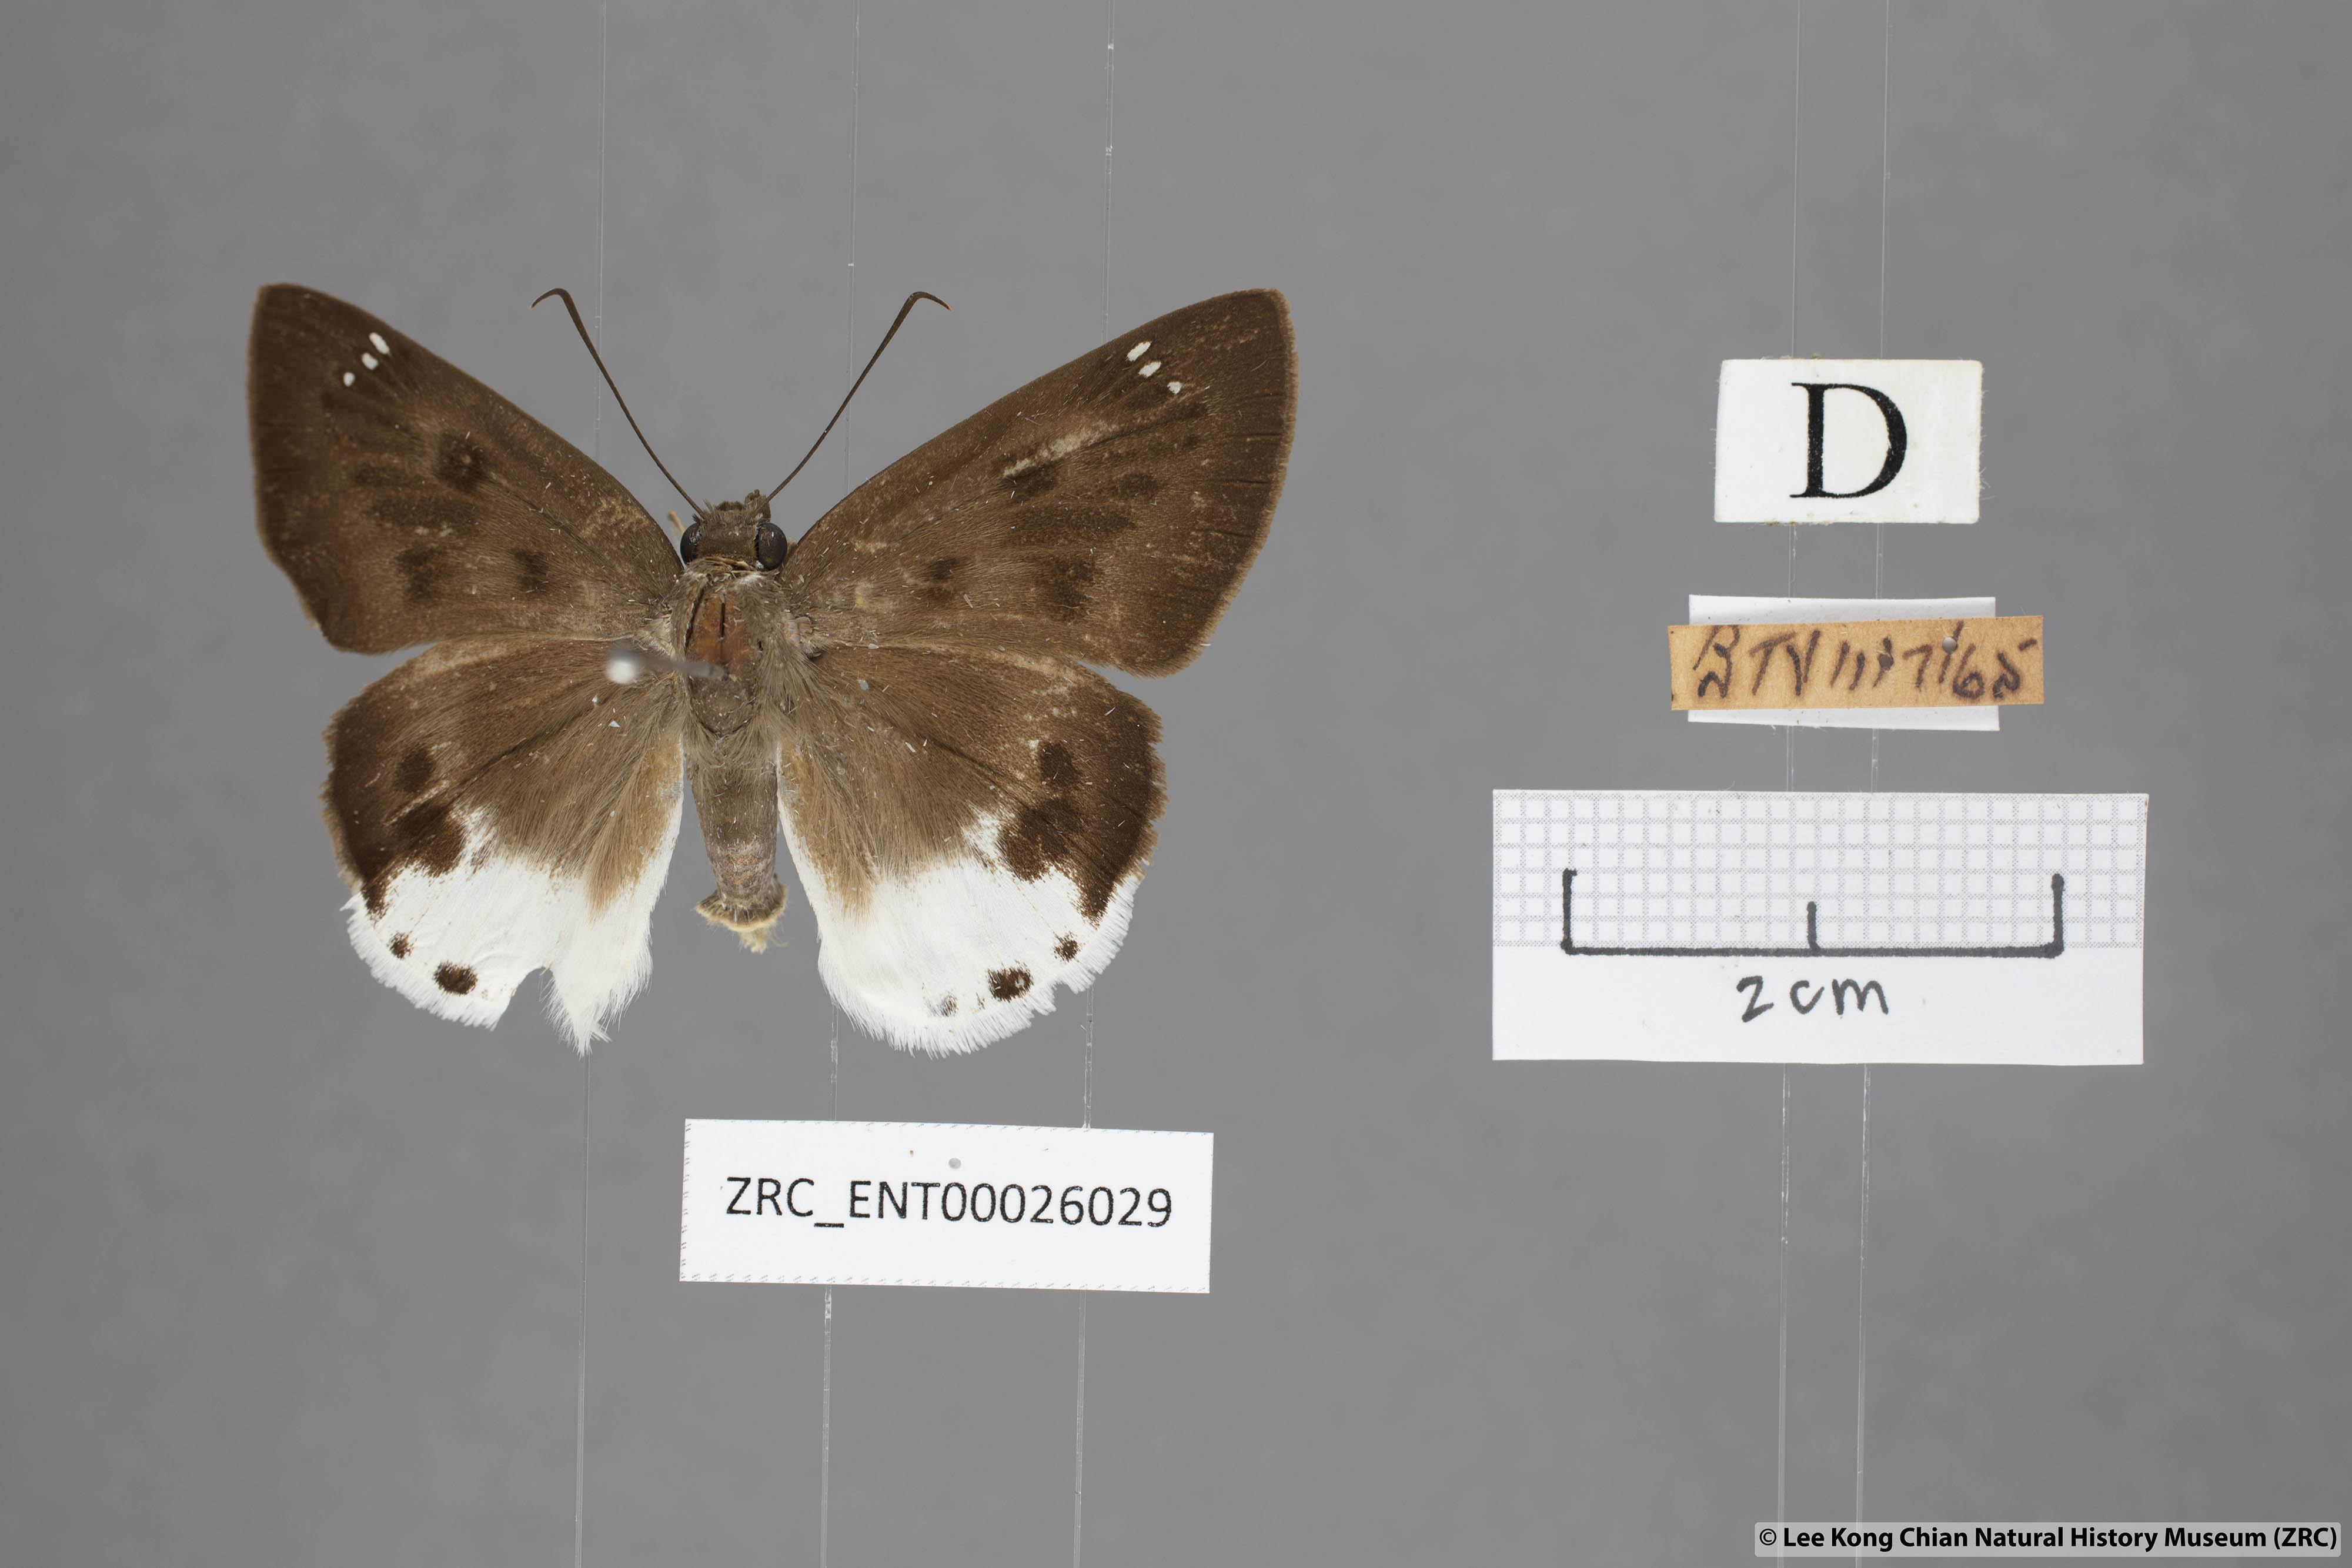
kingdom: Animalia
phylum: Arthropoda
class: Insecta
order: Lepidoptera
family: Hesperiidae
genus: Tagiades
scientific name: Tagiades parra
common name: Straight snow flat
